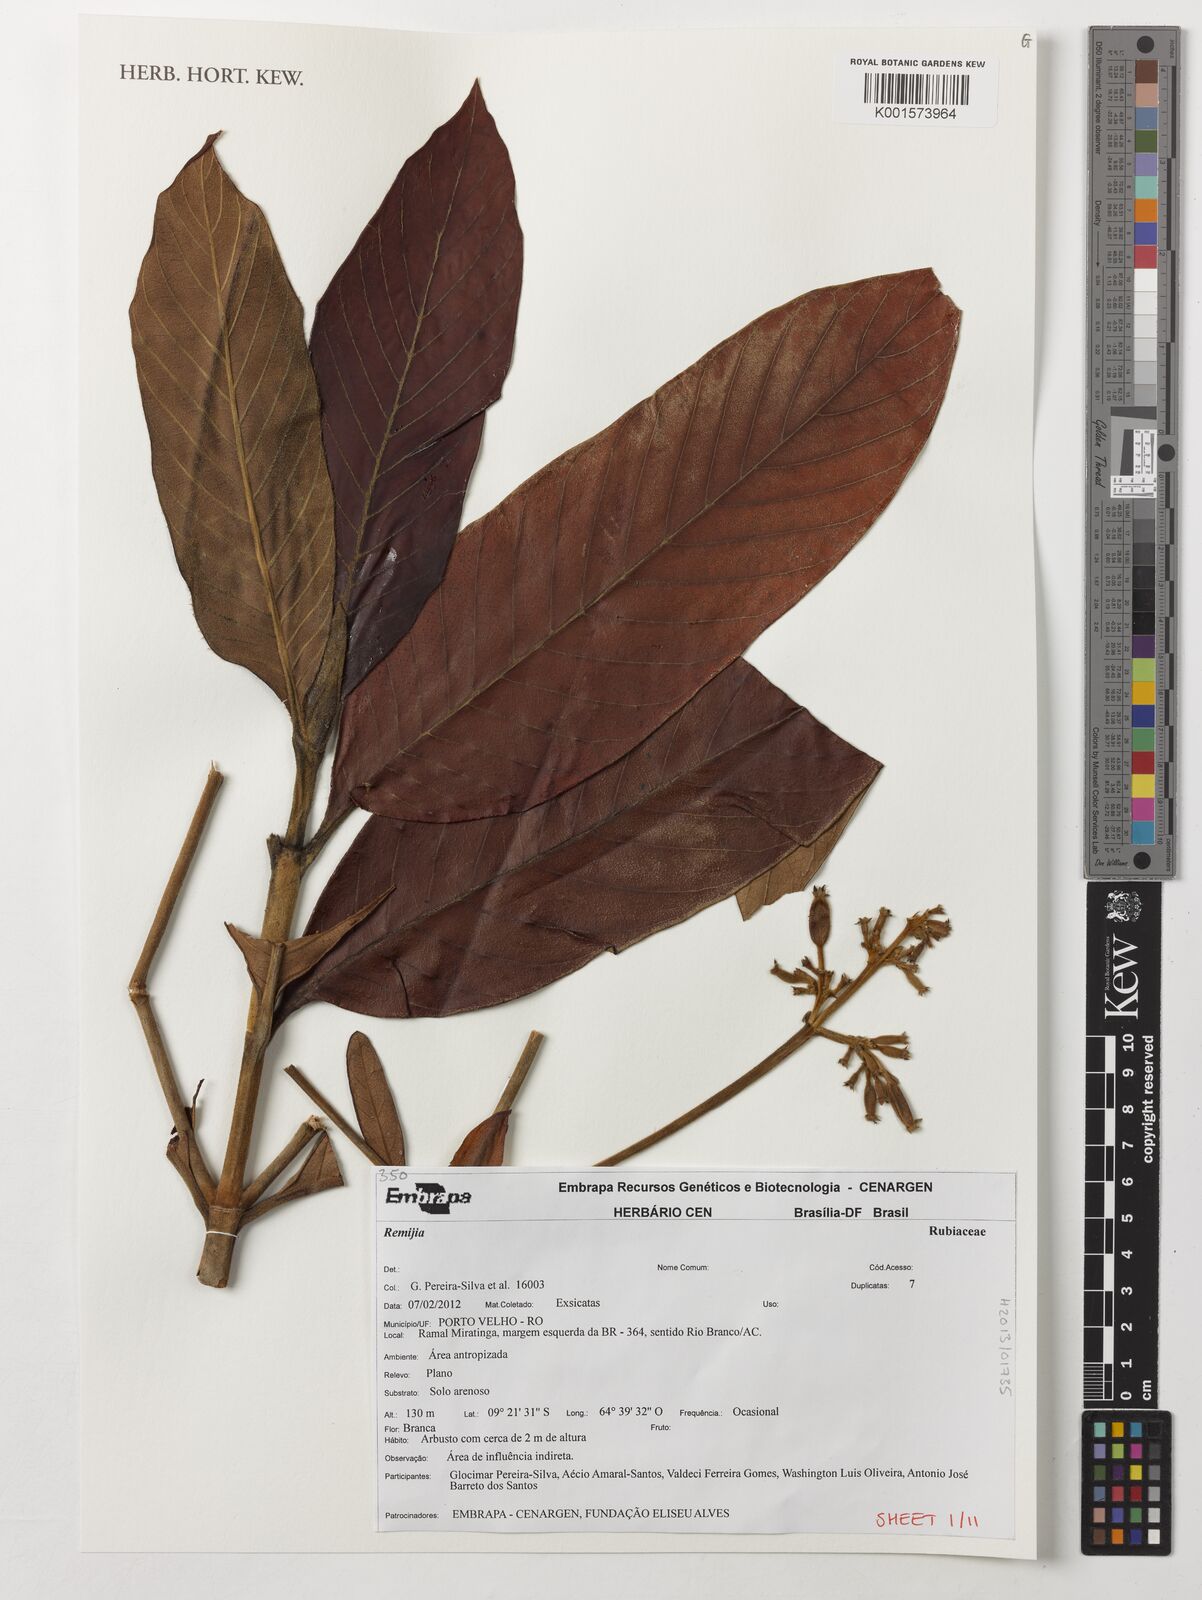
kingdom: Plantae
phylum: Tracheophyta
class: Magnoliopsida
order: Gentianales
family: Rubiaceae
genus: Remijia
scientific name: Remijia
